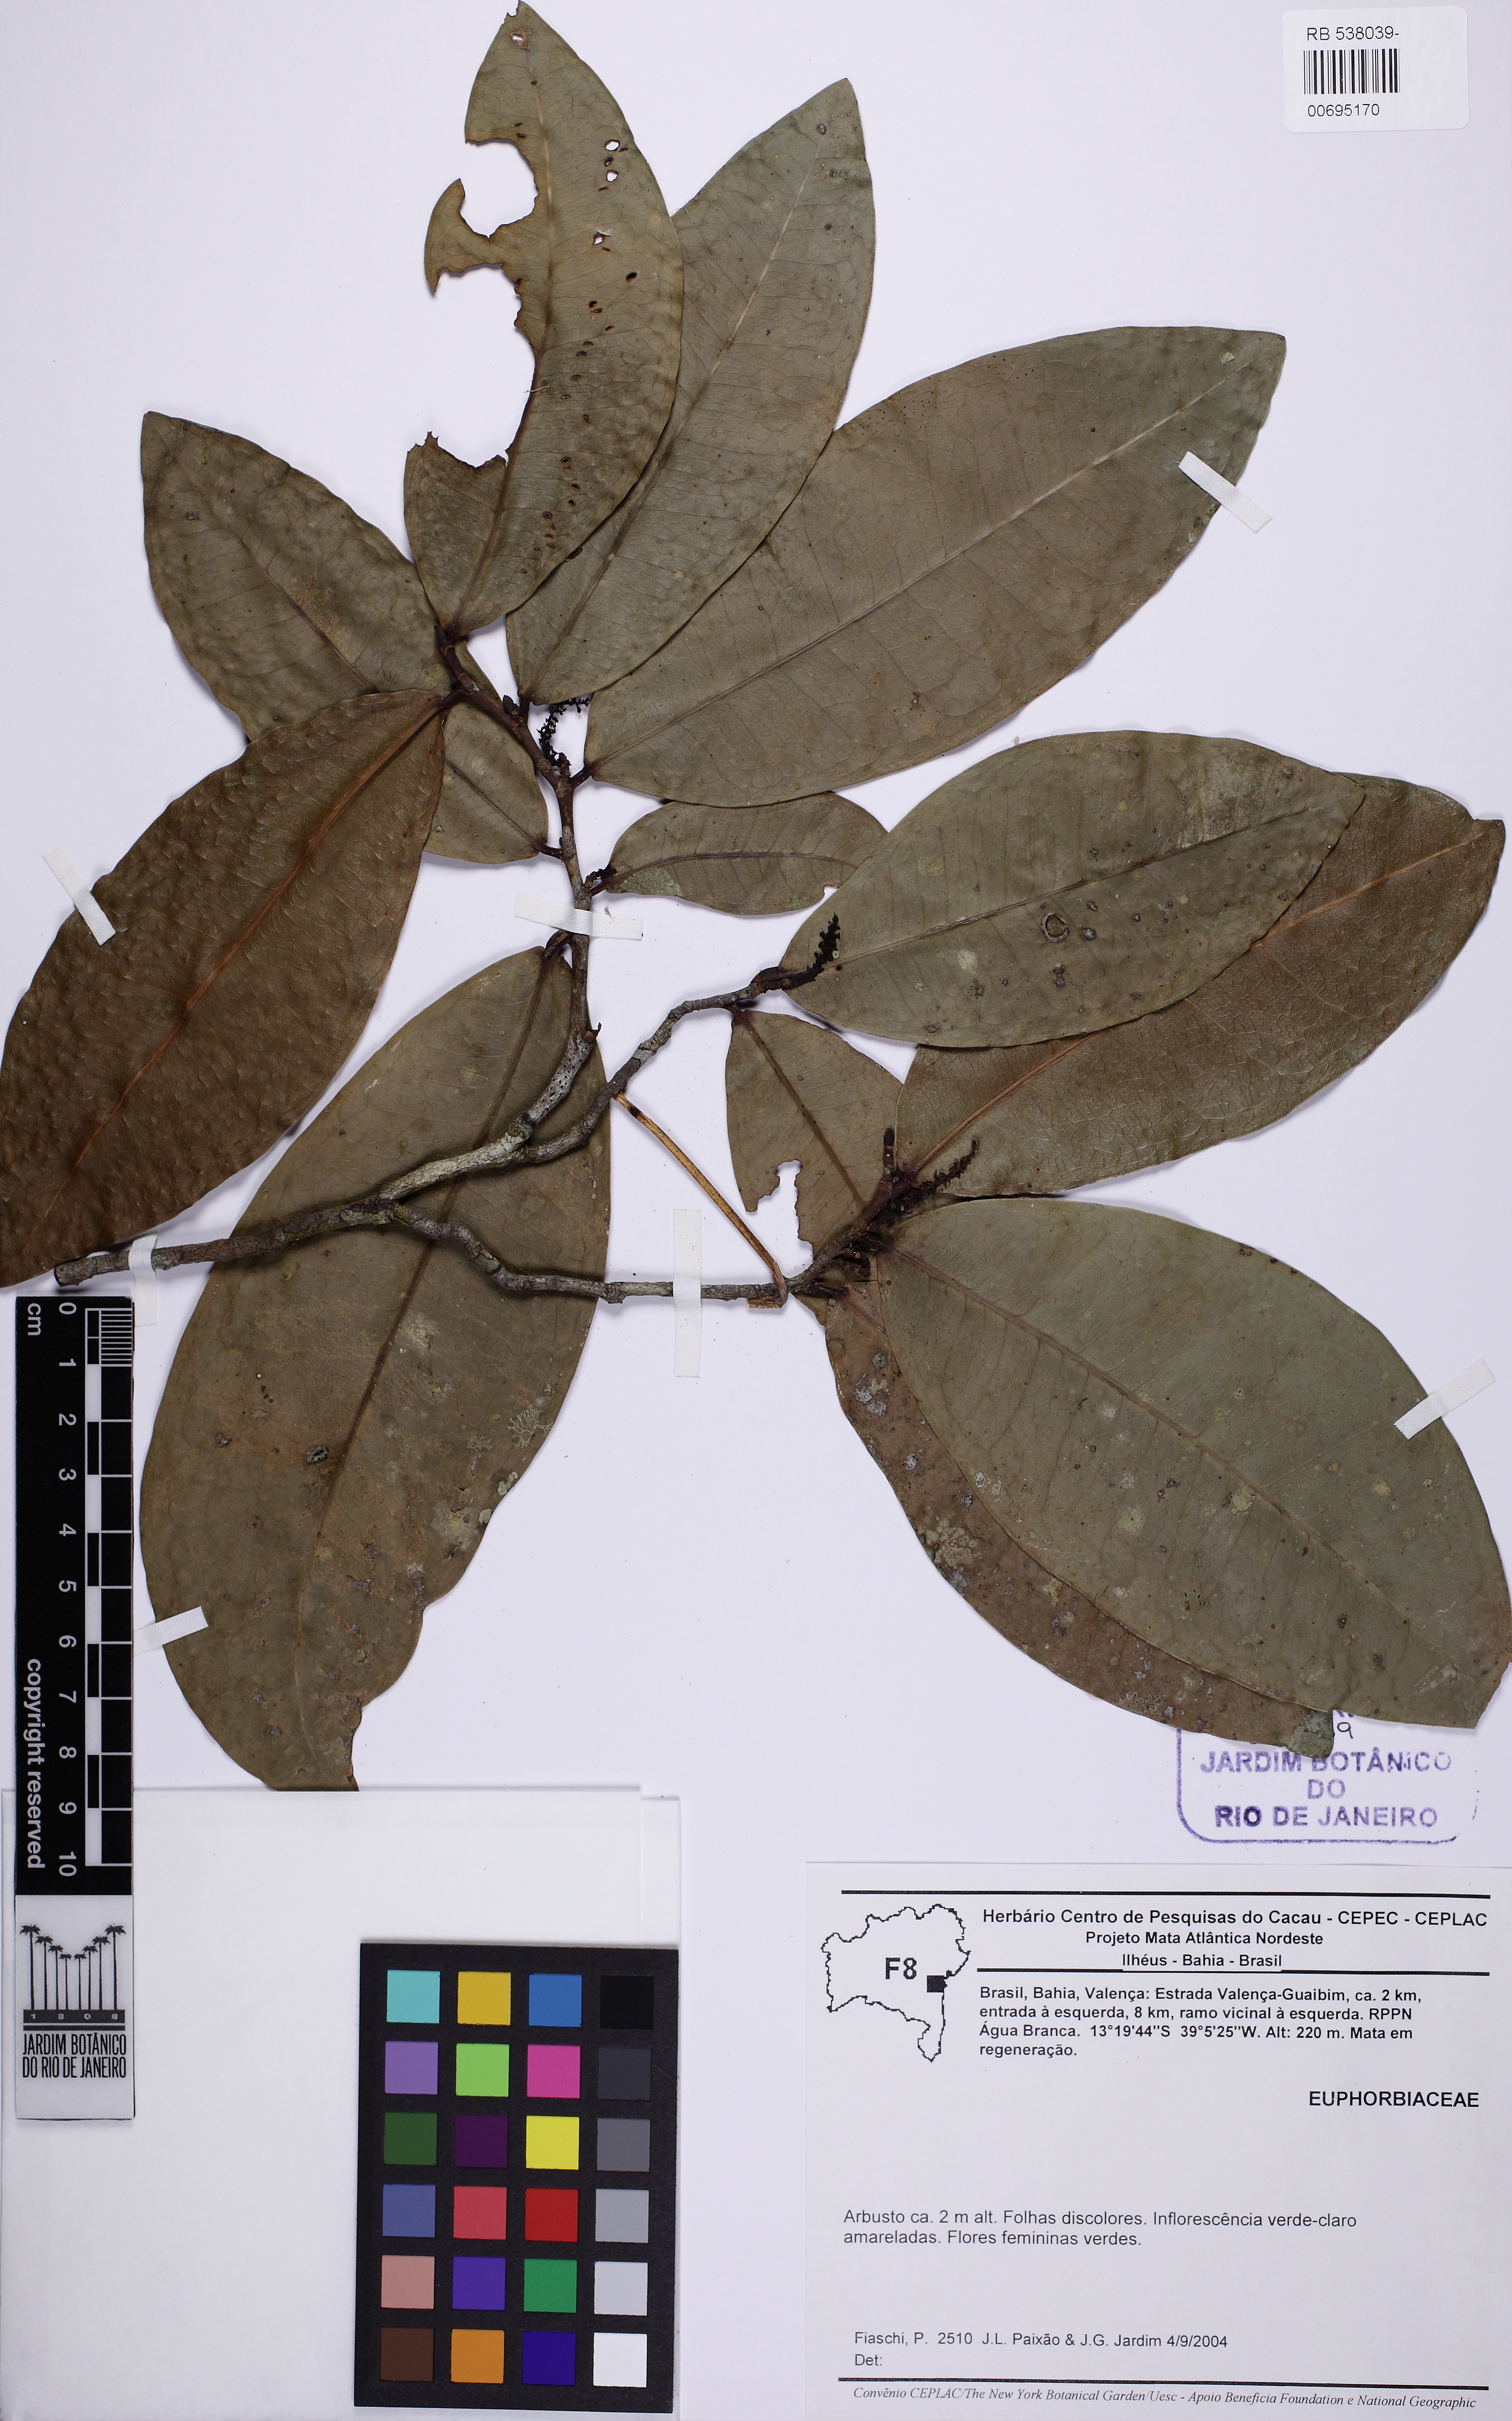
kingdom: Plantae
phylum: Tracheophyta
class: Magnoliopsida
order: Malpighiales
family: Euphorbiaceae
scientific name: Euphorbiaceae
